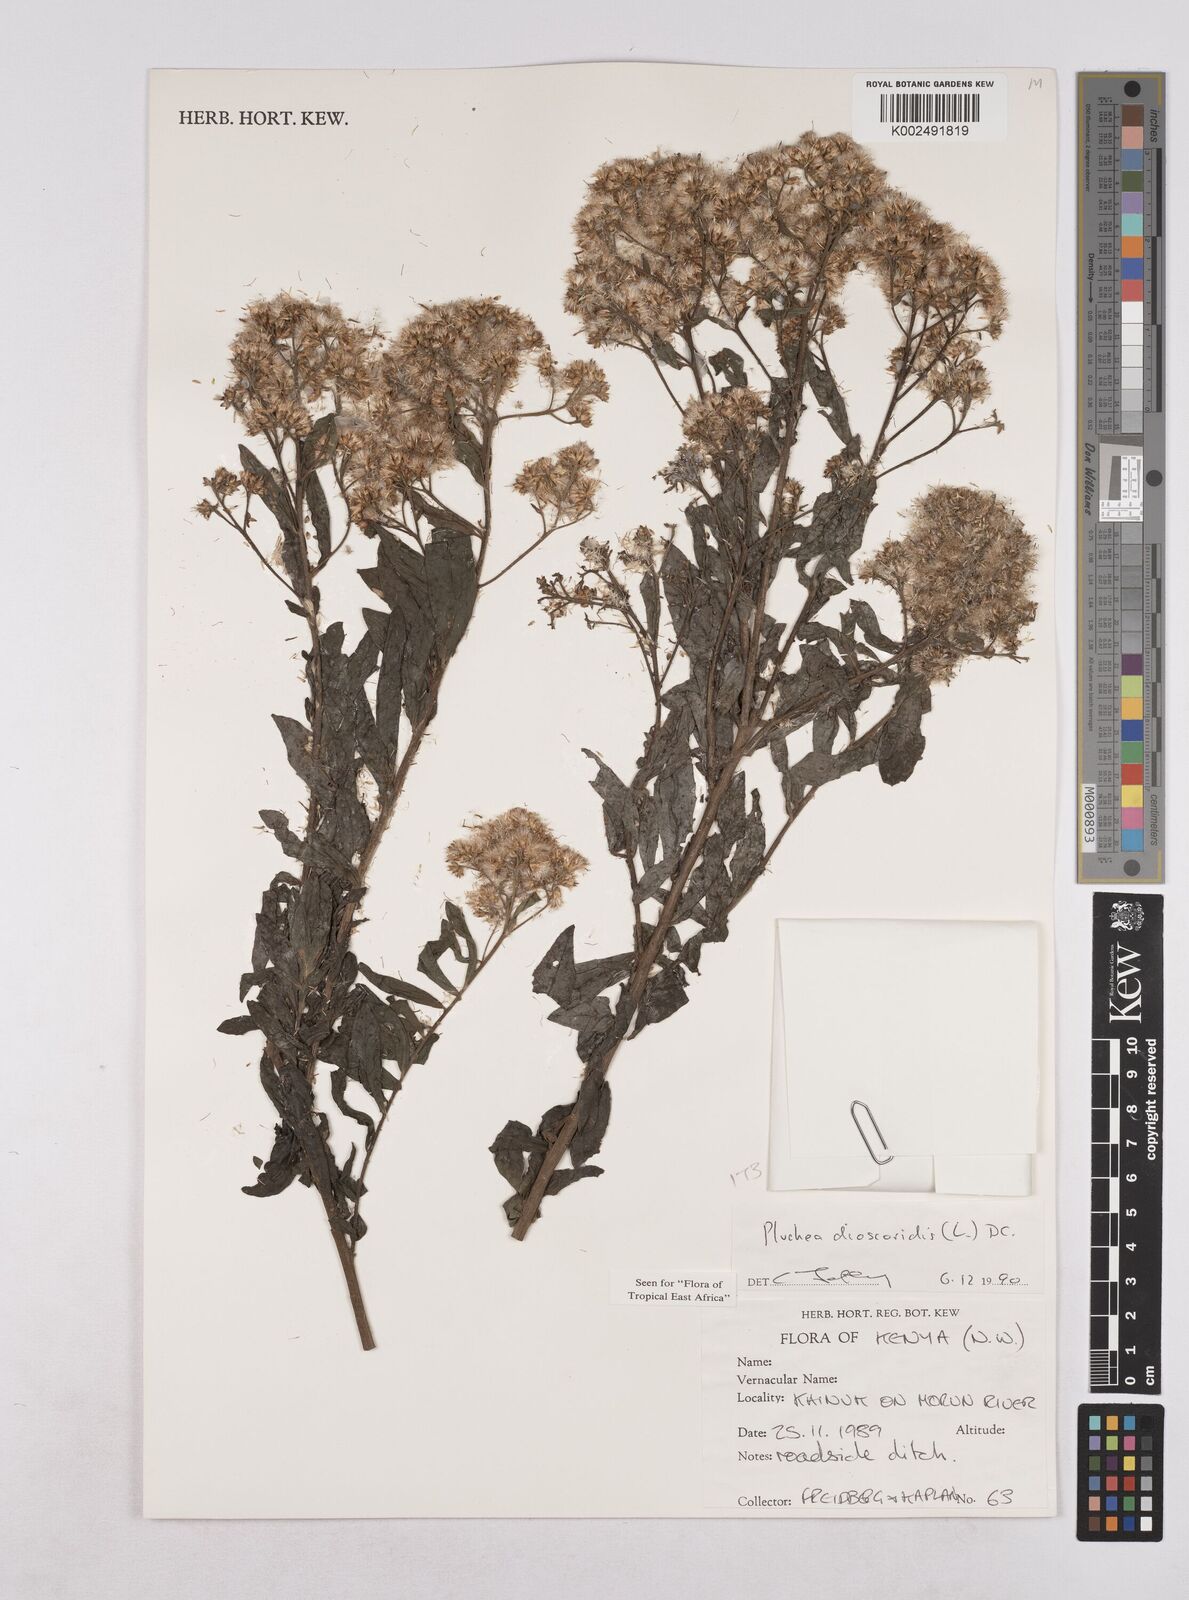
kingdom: Plantae
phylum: Tracheophyta
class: Magnoliopsida
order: Asterales
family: Asteraceae
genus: Pluchea
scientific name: Pluchea dioscoridis
